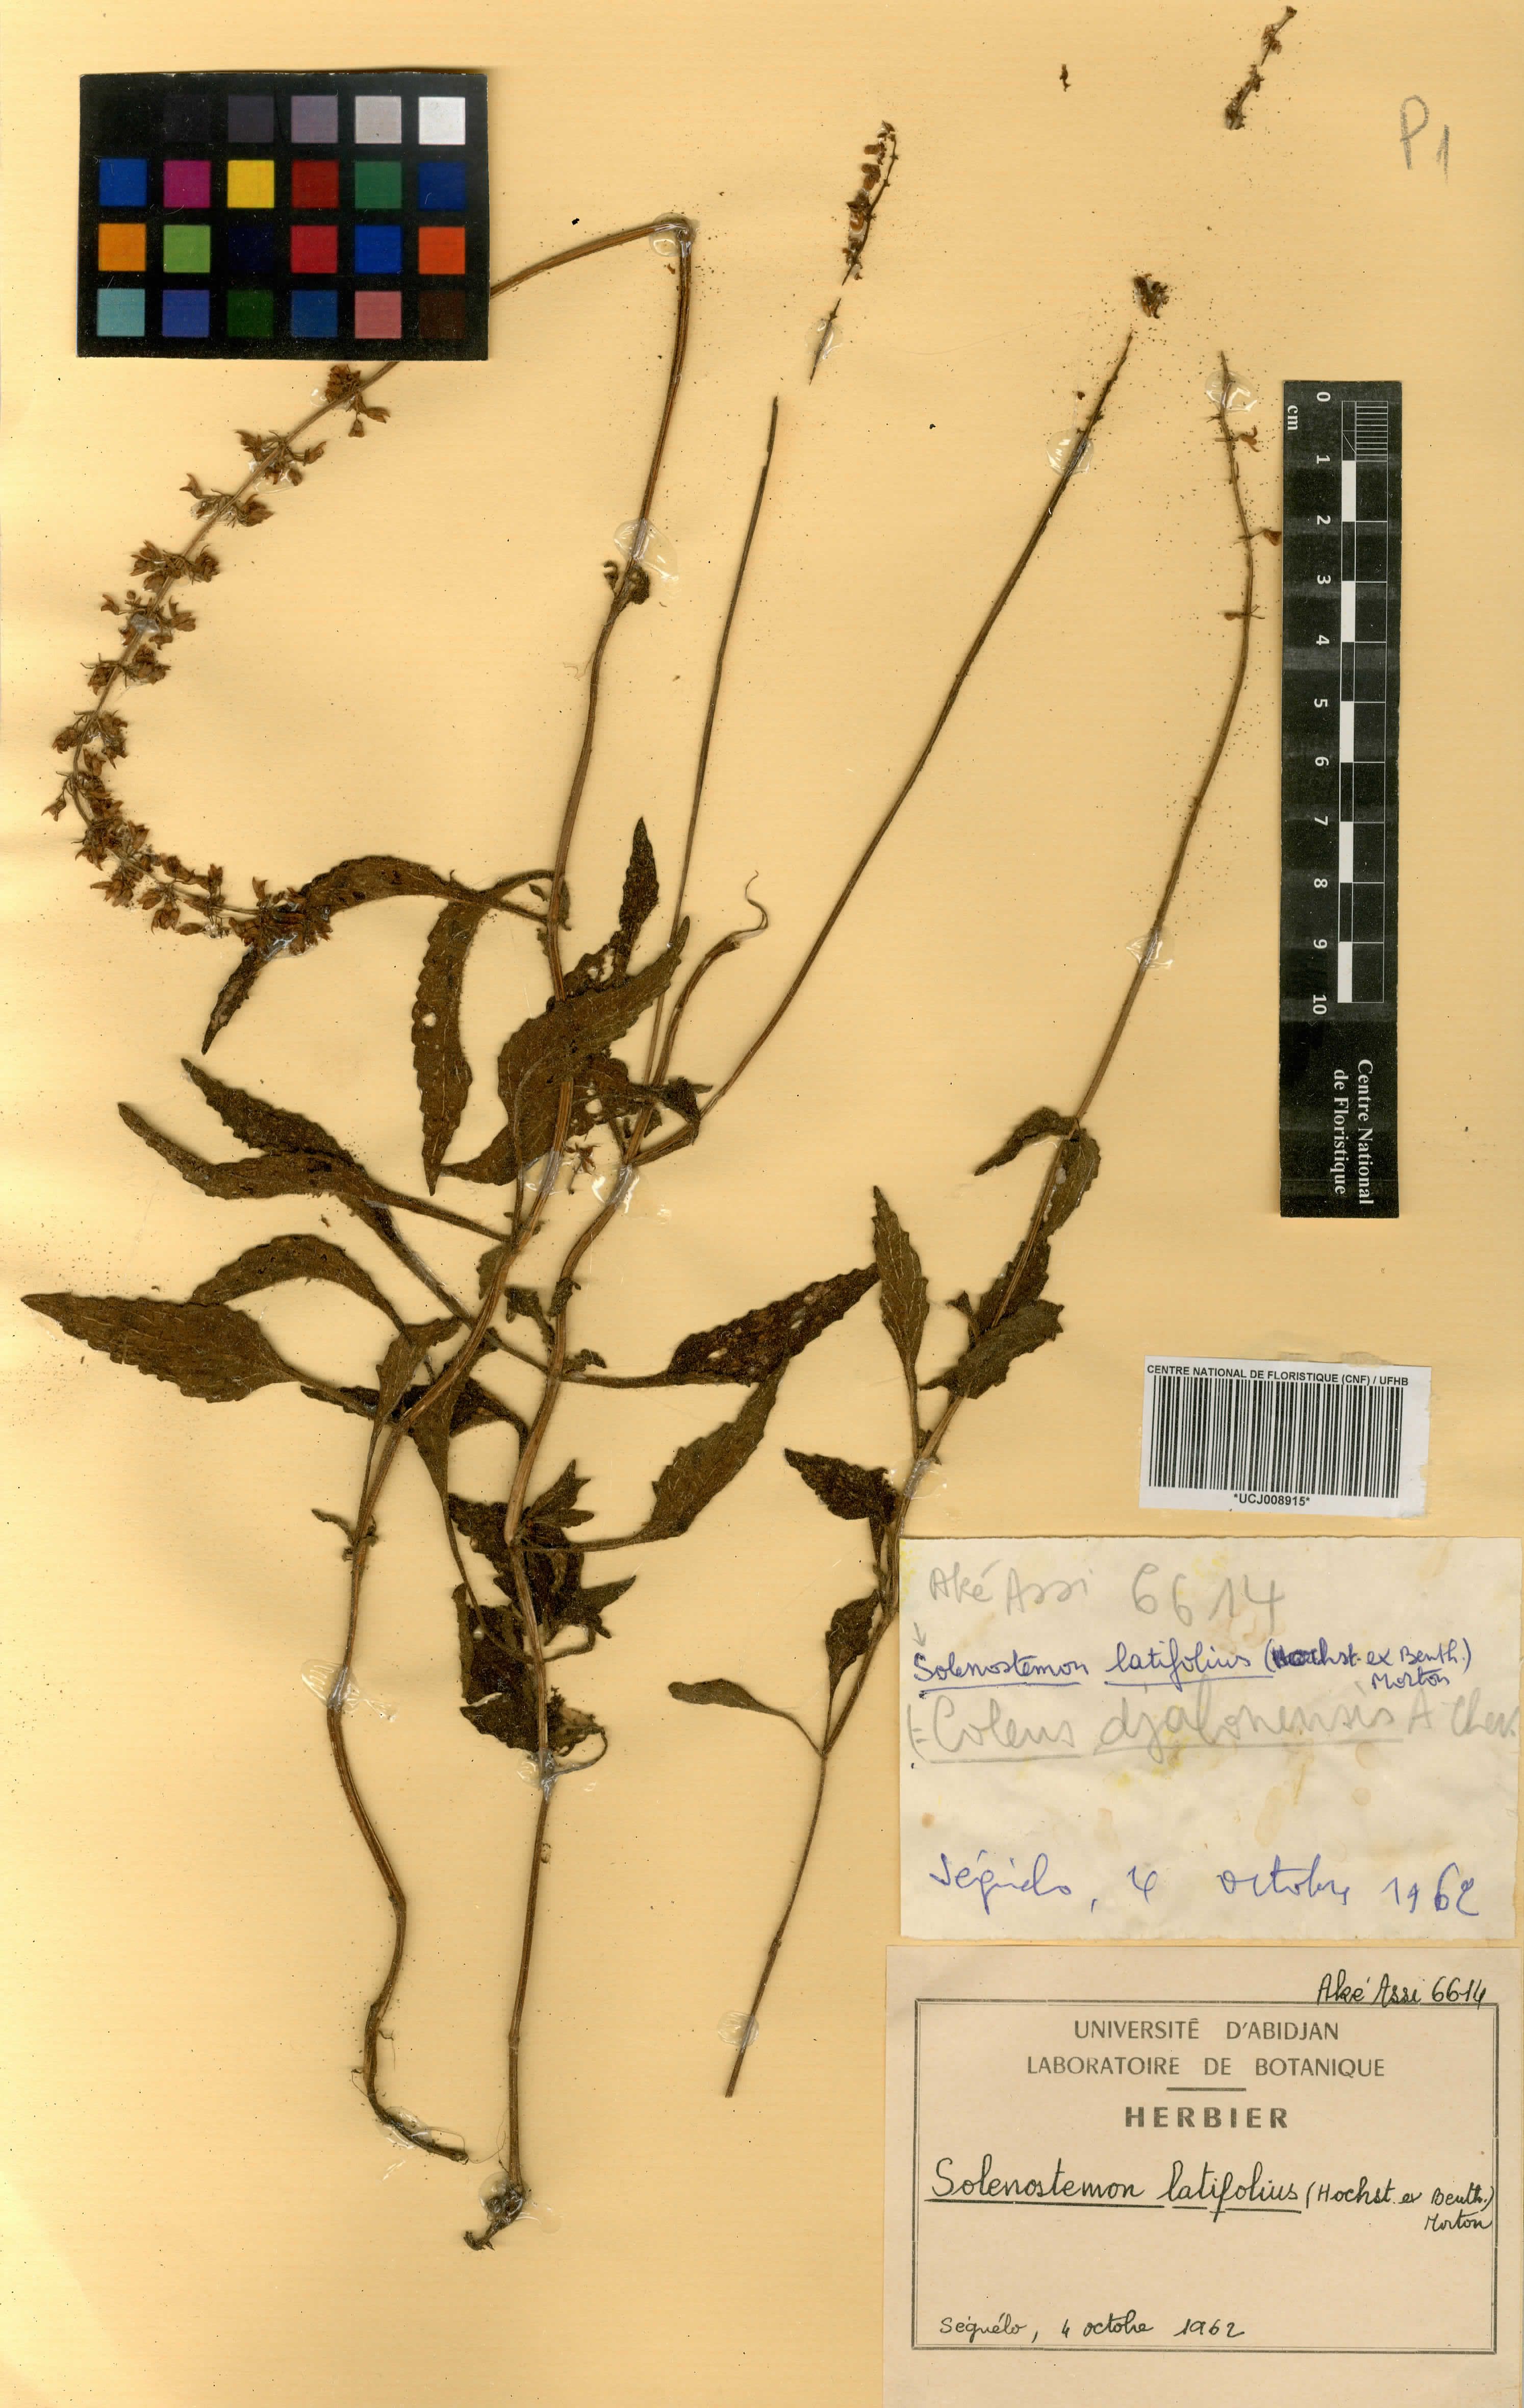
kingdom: Plantae
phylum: Tracheophyta
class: Magnoliopsida
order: Lamiales
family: Lamiaceae
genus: Coleus
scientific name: Coleus bojeri
